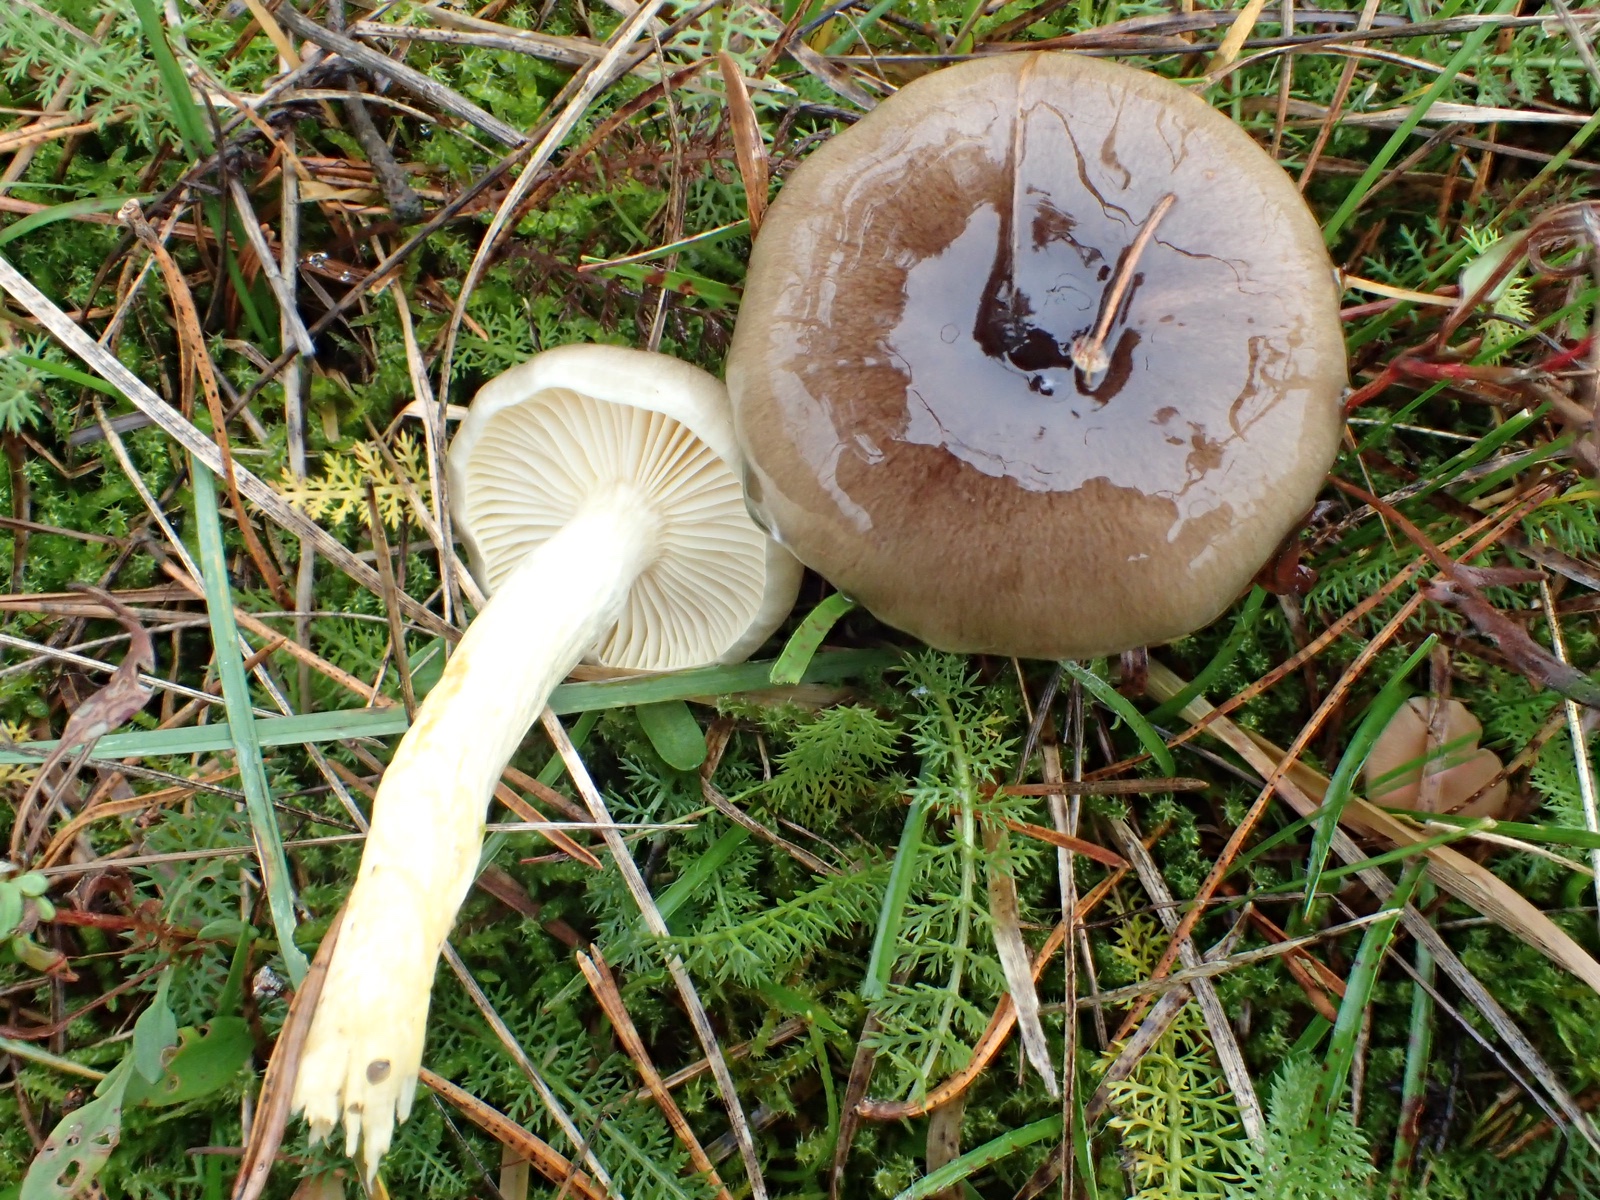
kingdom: Fungi
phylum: Basidiomycota
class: Agaricomycetes
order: Agaricales
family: Hygrophoraceae
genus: Hygrophorus
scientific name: Hygrophorus hypothejus
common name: frost-sneglehat
